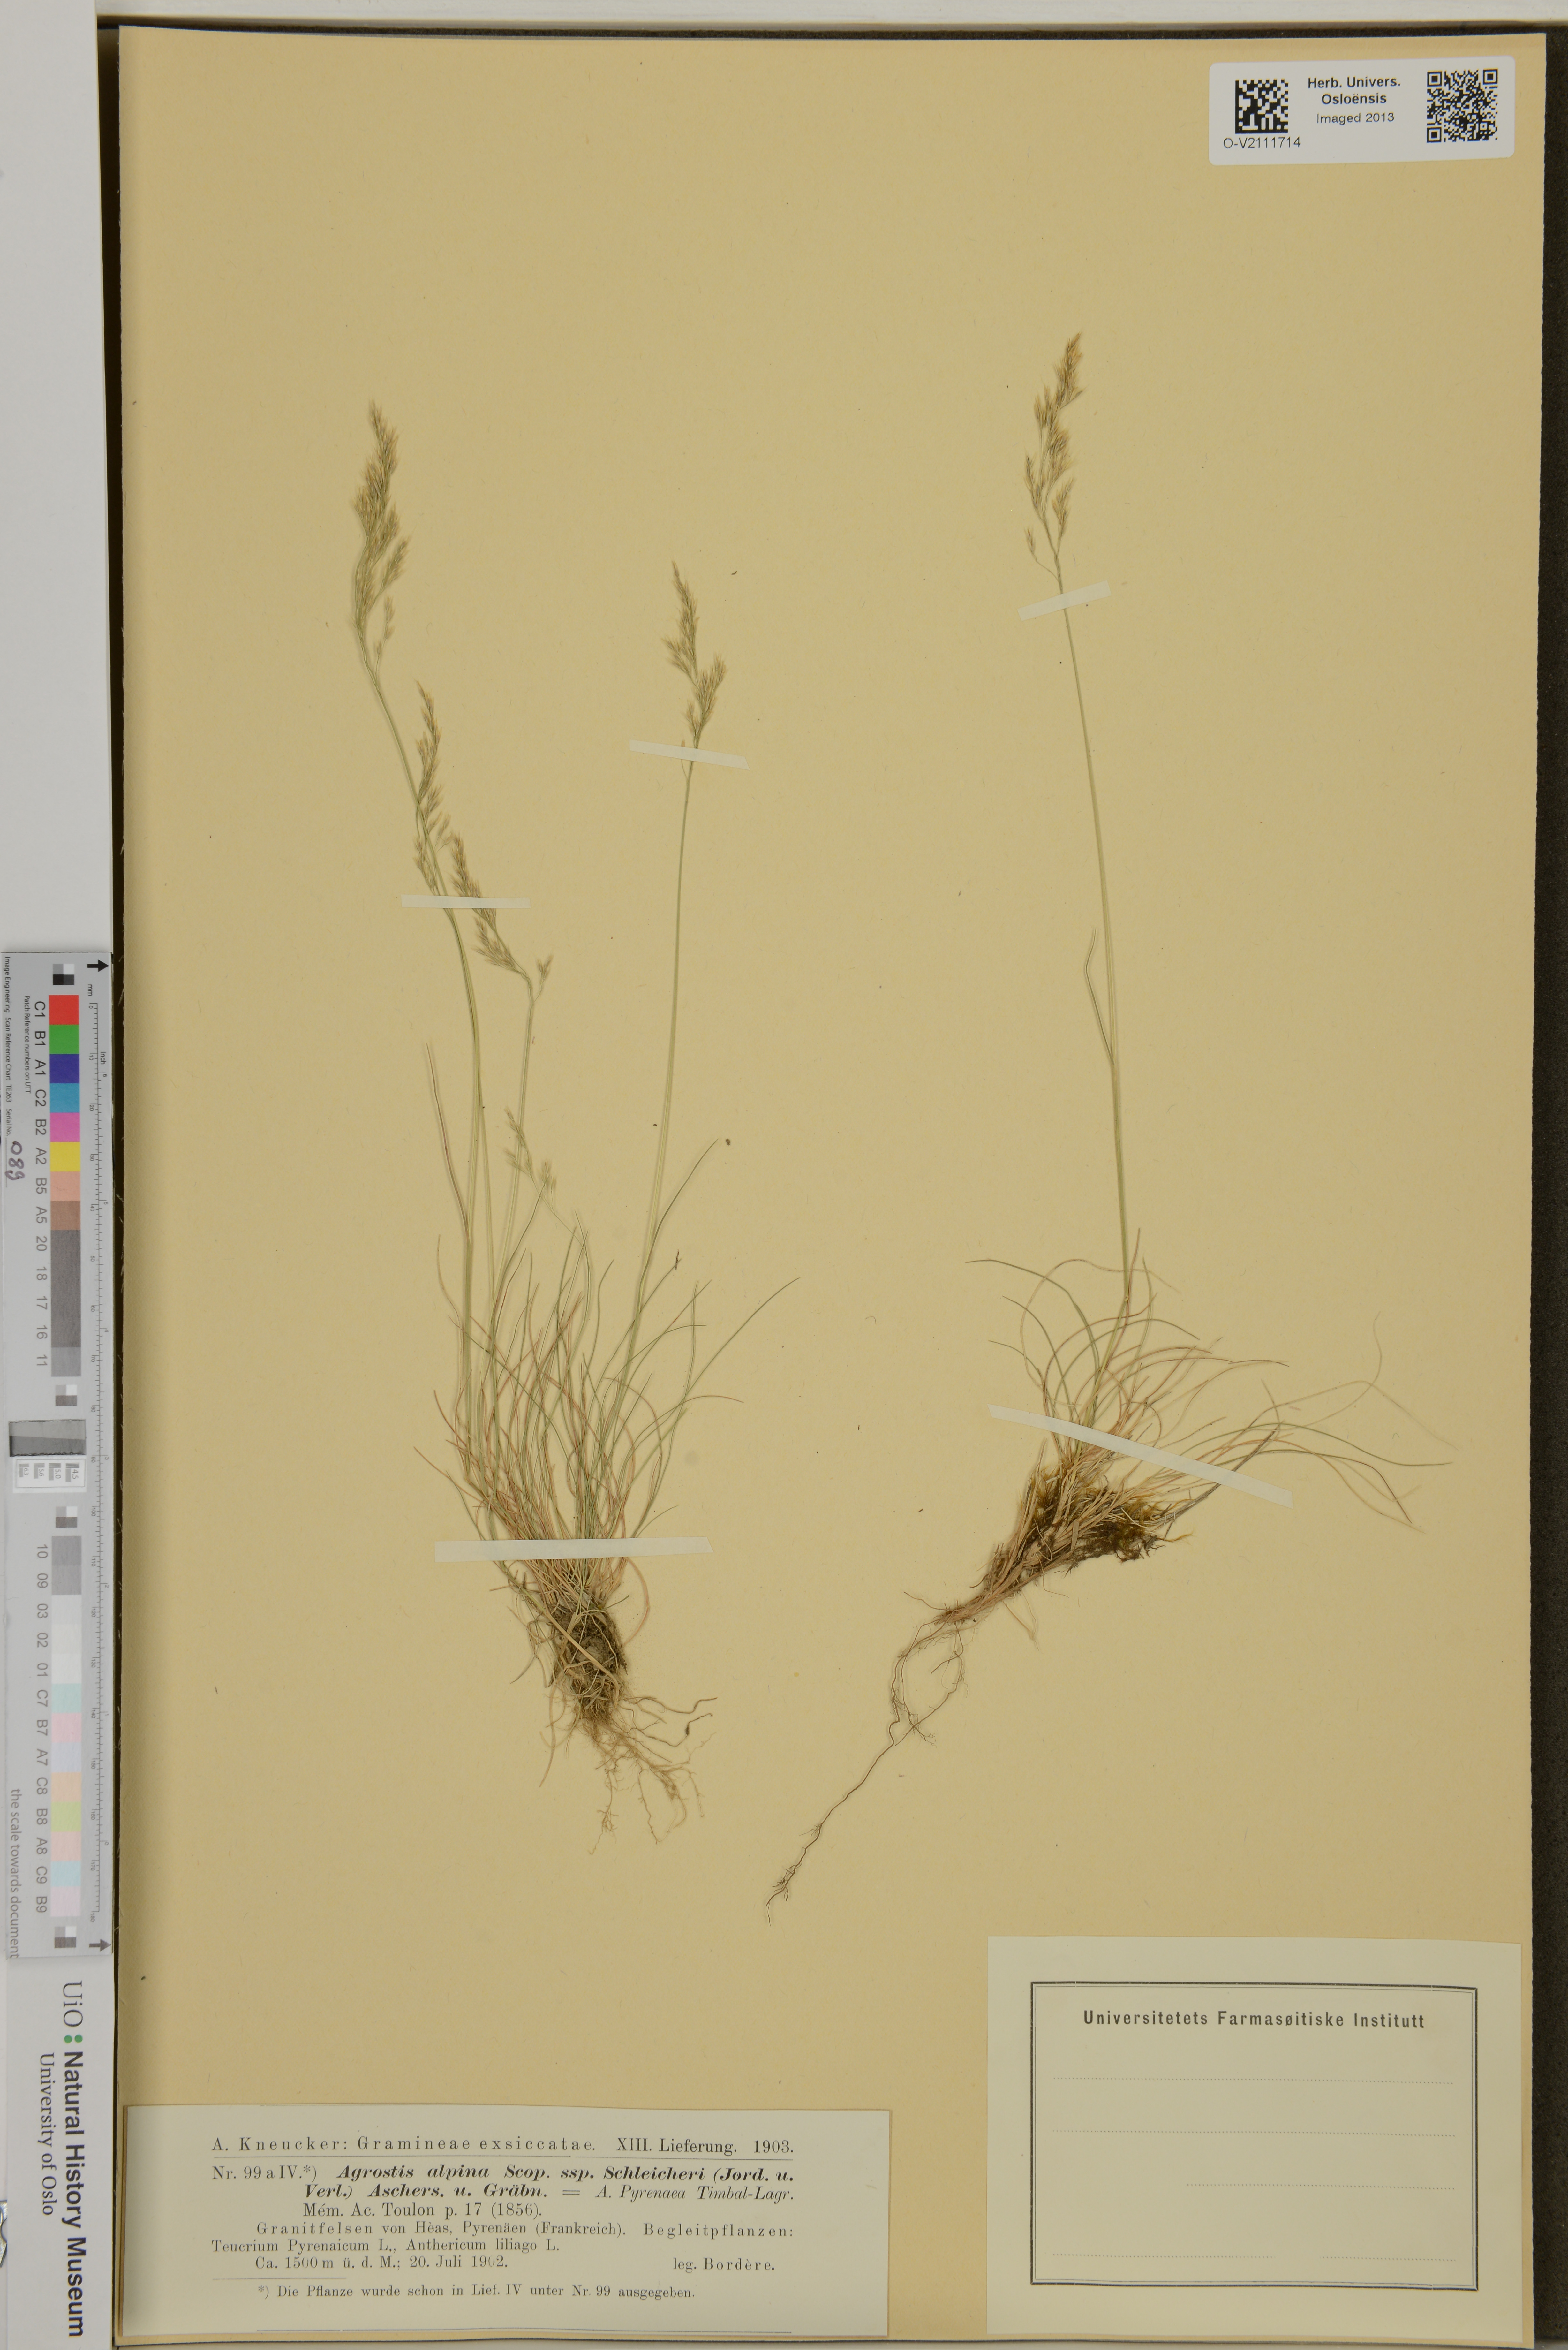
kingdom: Plantae
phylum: Tracheophyta
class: Liliopsida
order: Poales
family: Poaceae
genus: Agrostis
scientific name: Agrostis alpina
